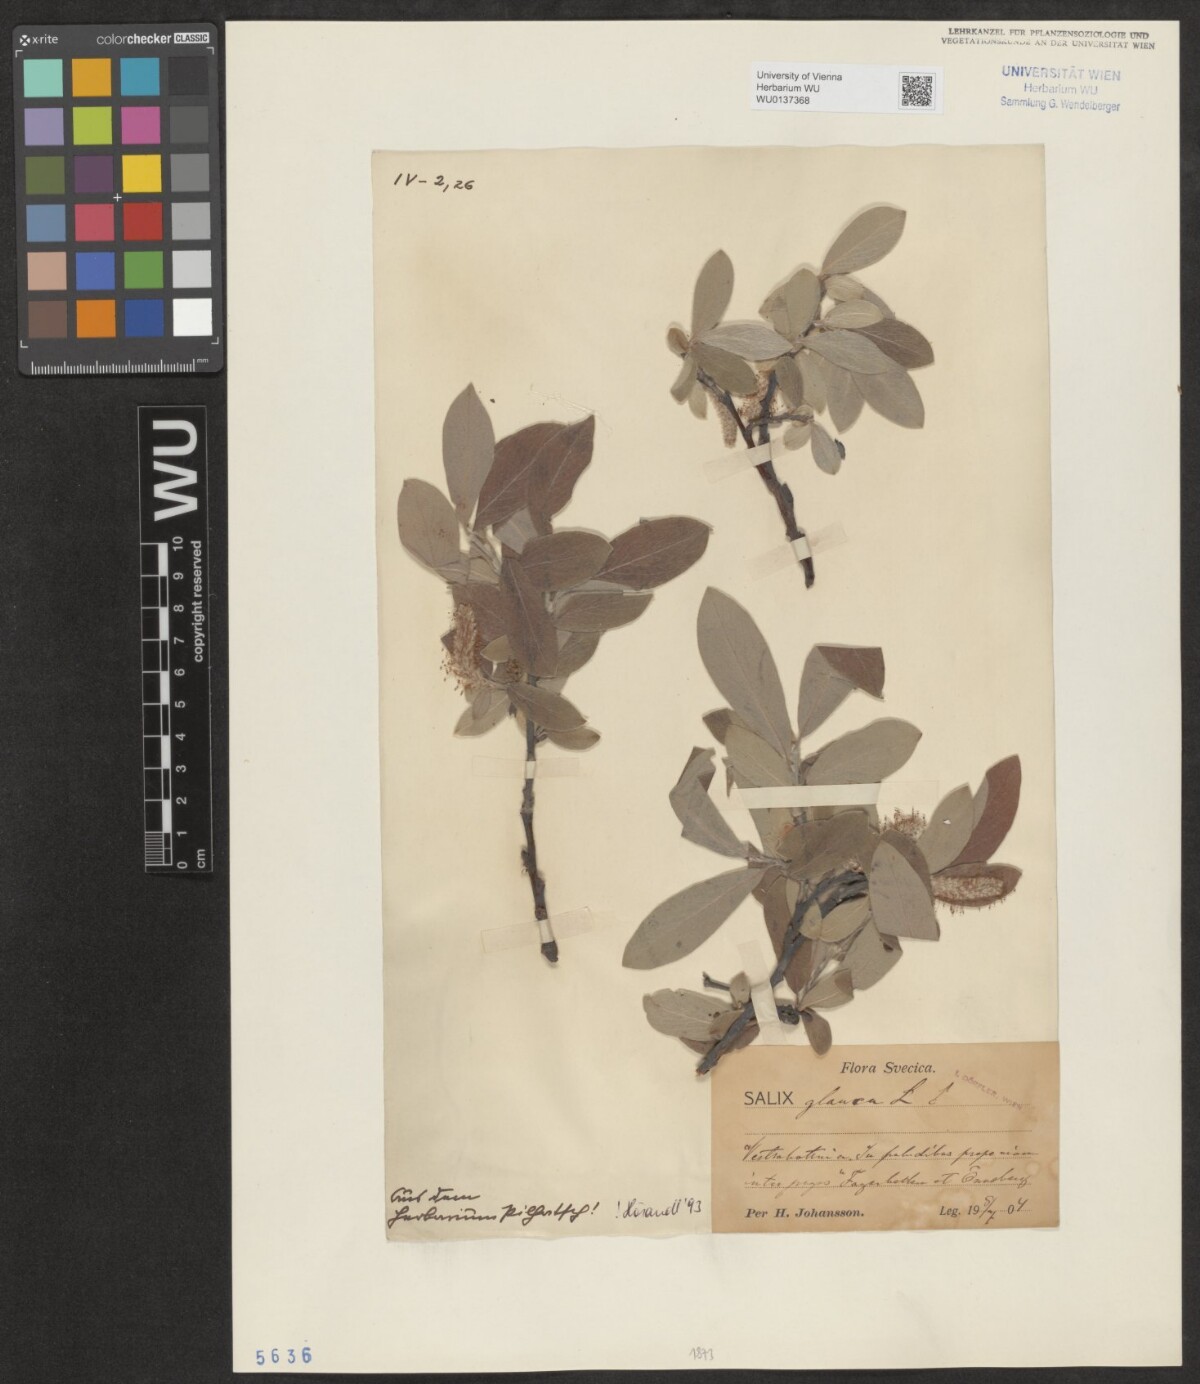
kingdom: Plantae
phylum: Tracheophyta
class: Magnoliopsida
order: Malpighiales
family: Salicaceae
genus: Salix
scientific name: Salix glauca
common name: Glaucous willow
